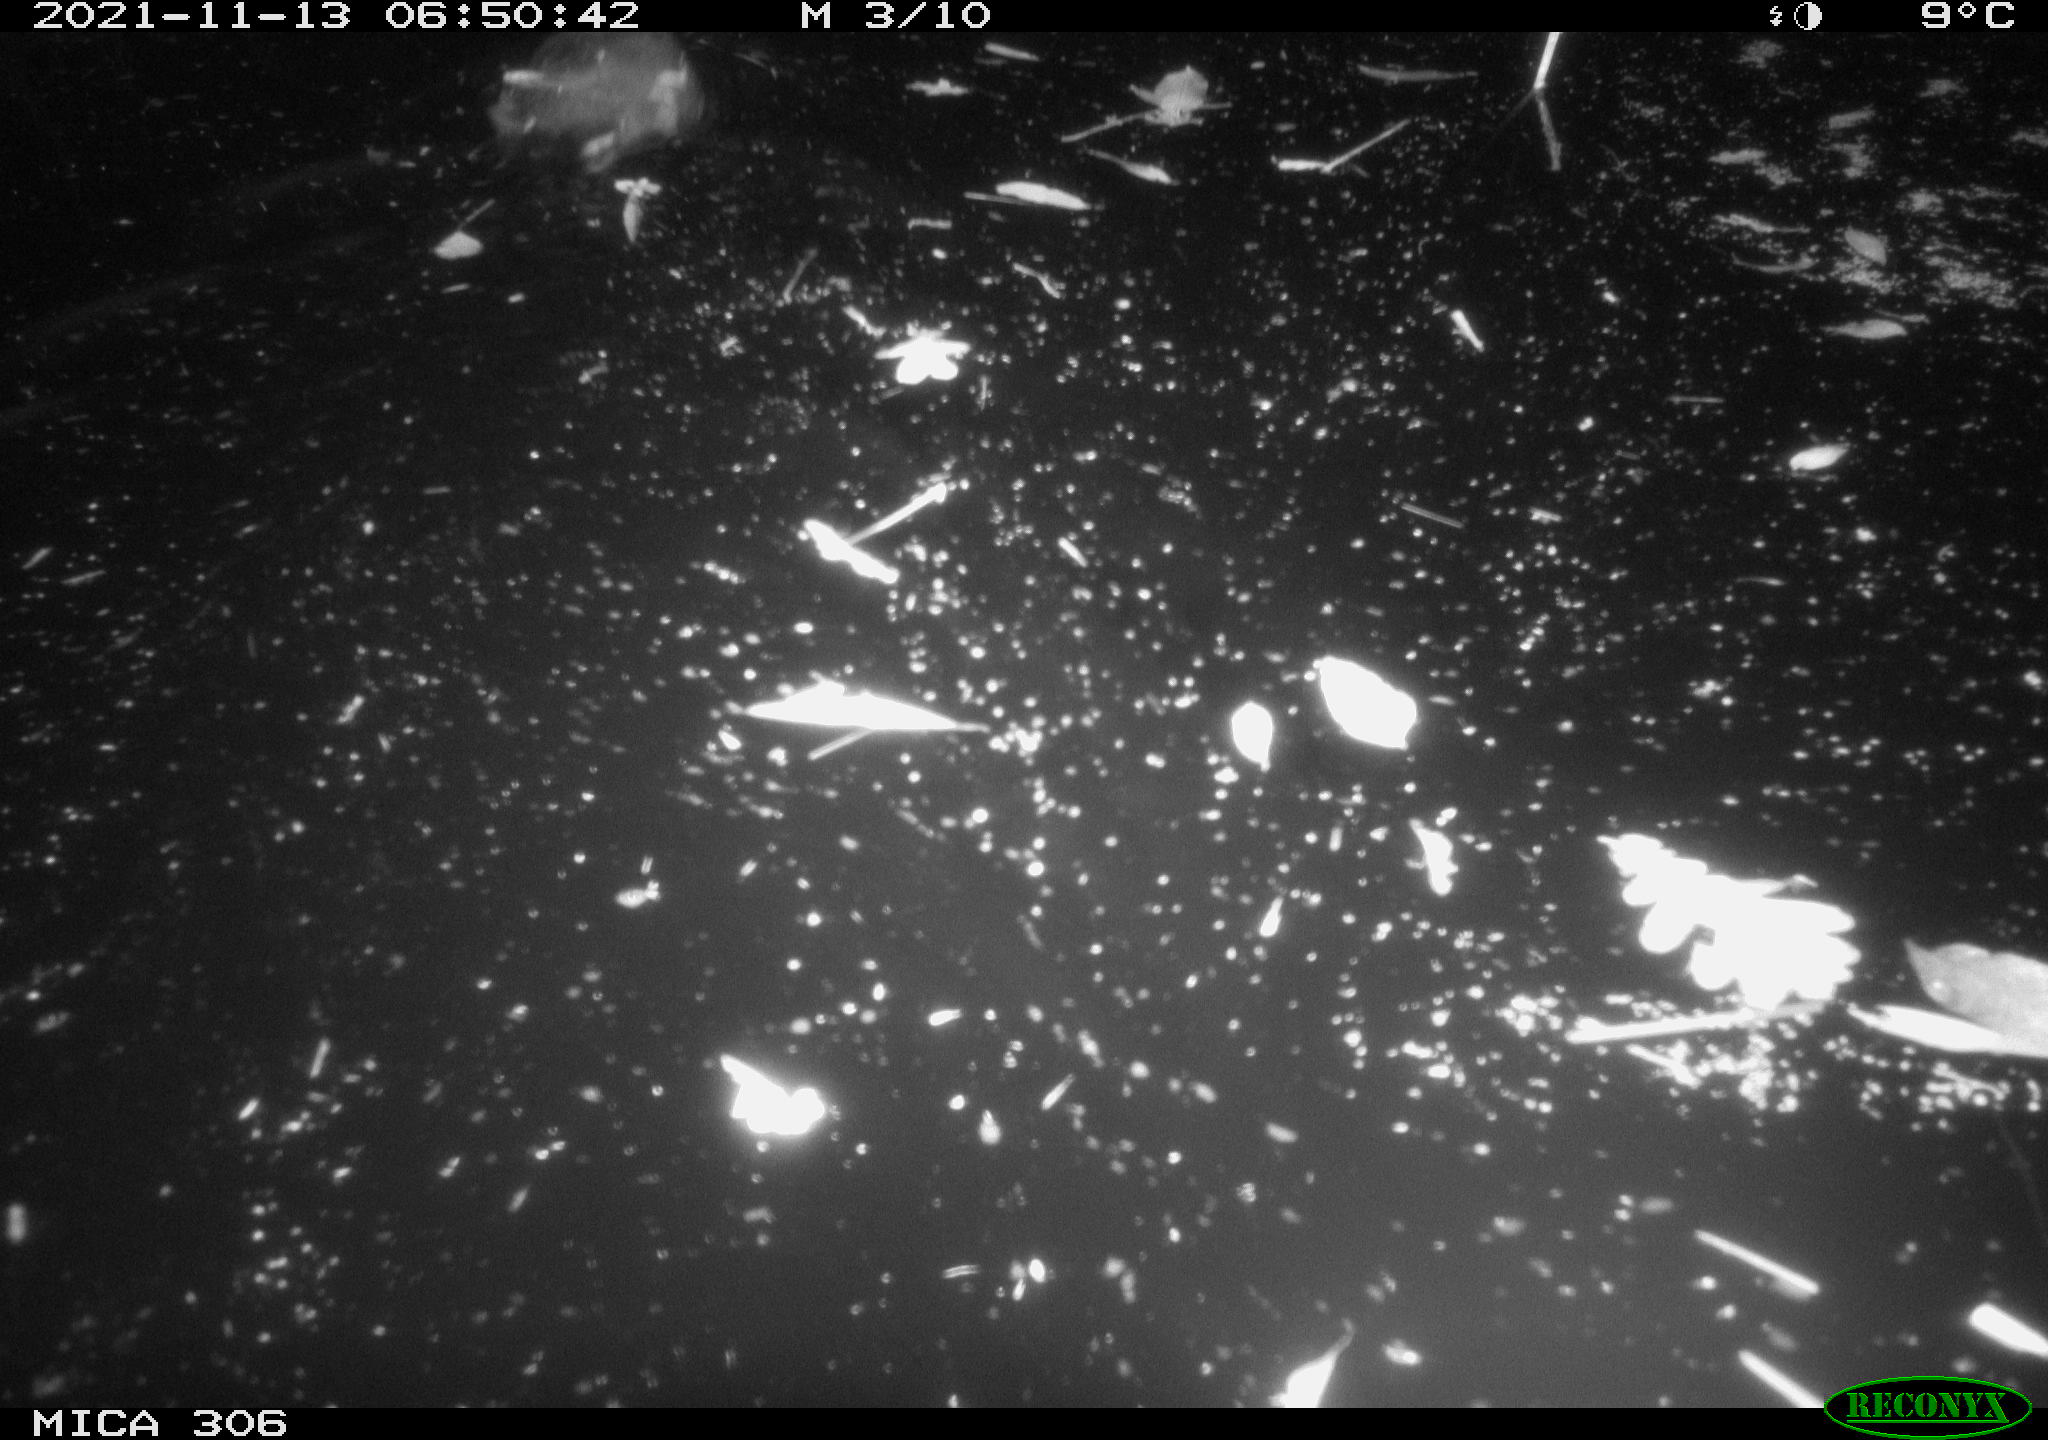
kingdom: Animalia
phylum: Chordata
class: Aves
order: Gruiformes
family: Rallidae
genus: Fulica
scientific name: Fulica atra
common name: Eurasian coot
